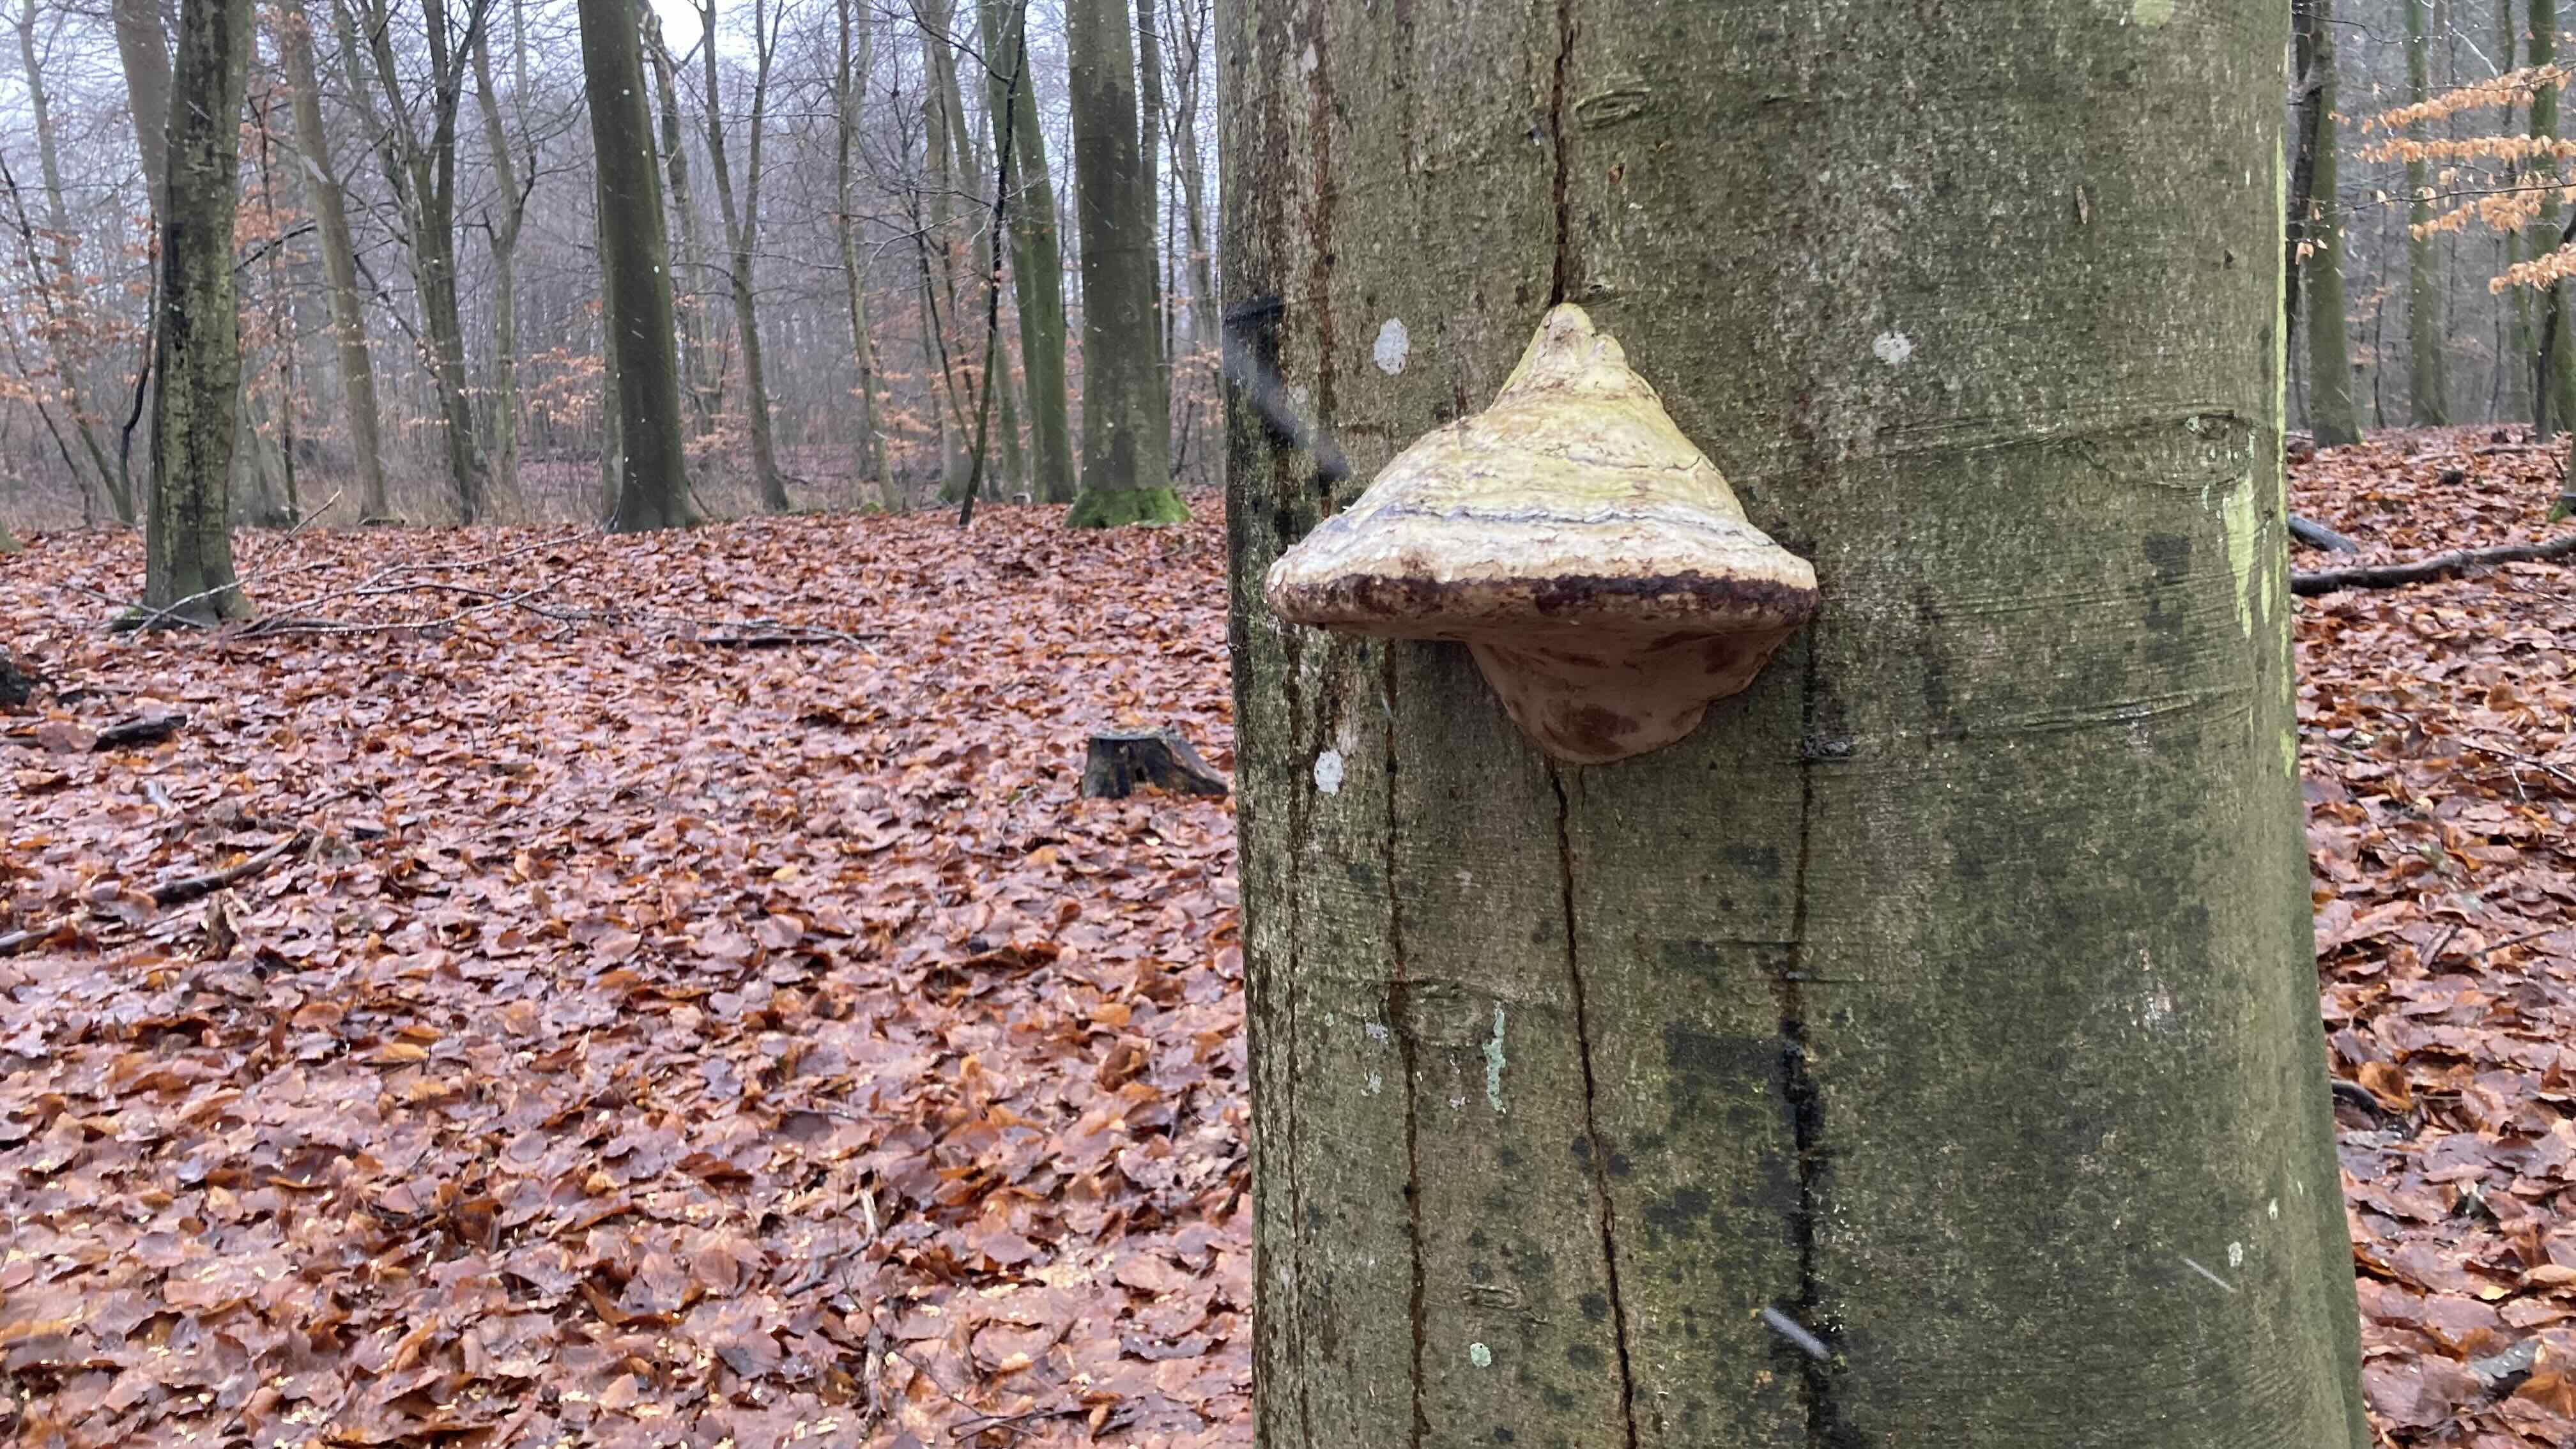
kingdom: Fungi
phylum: Basidiomycota
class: Agaricomycetes
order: Polyporales
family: Polyporaceae
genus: Fomes
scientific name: Fomes fomentarius
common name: tøndersvamp
